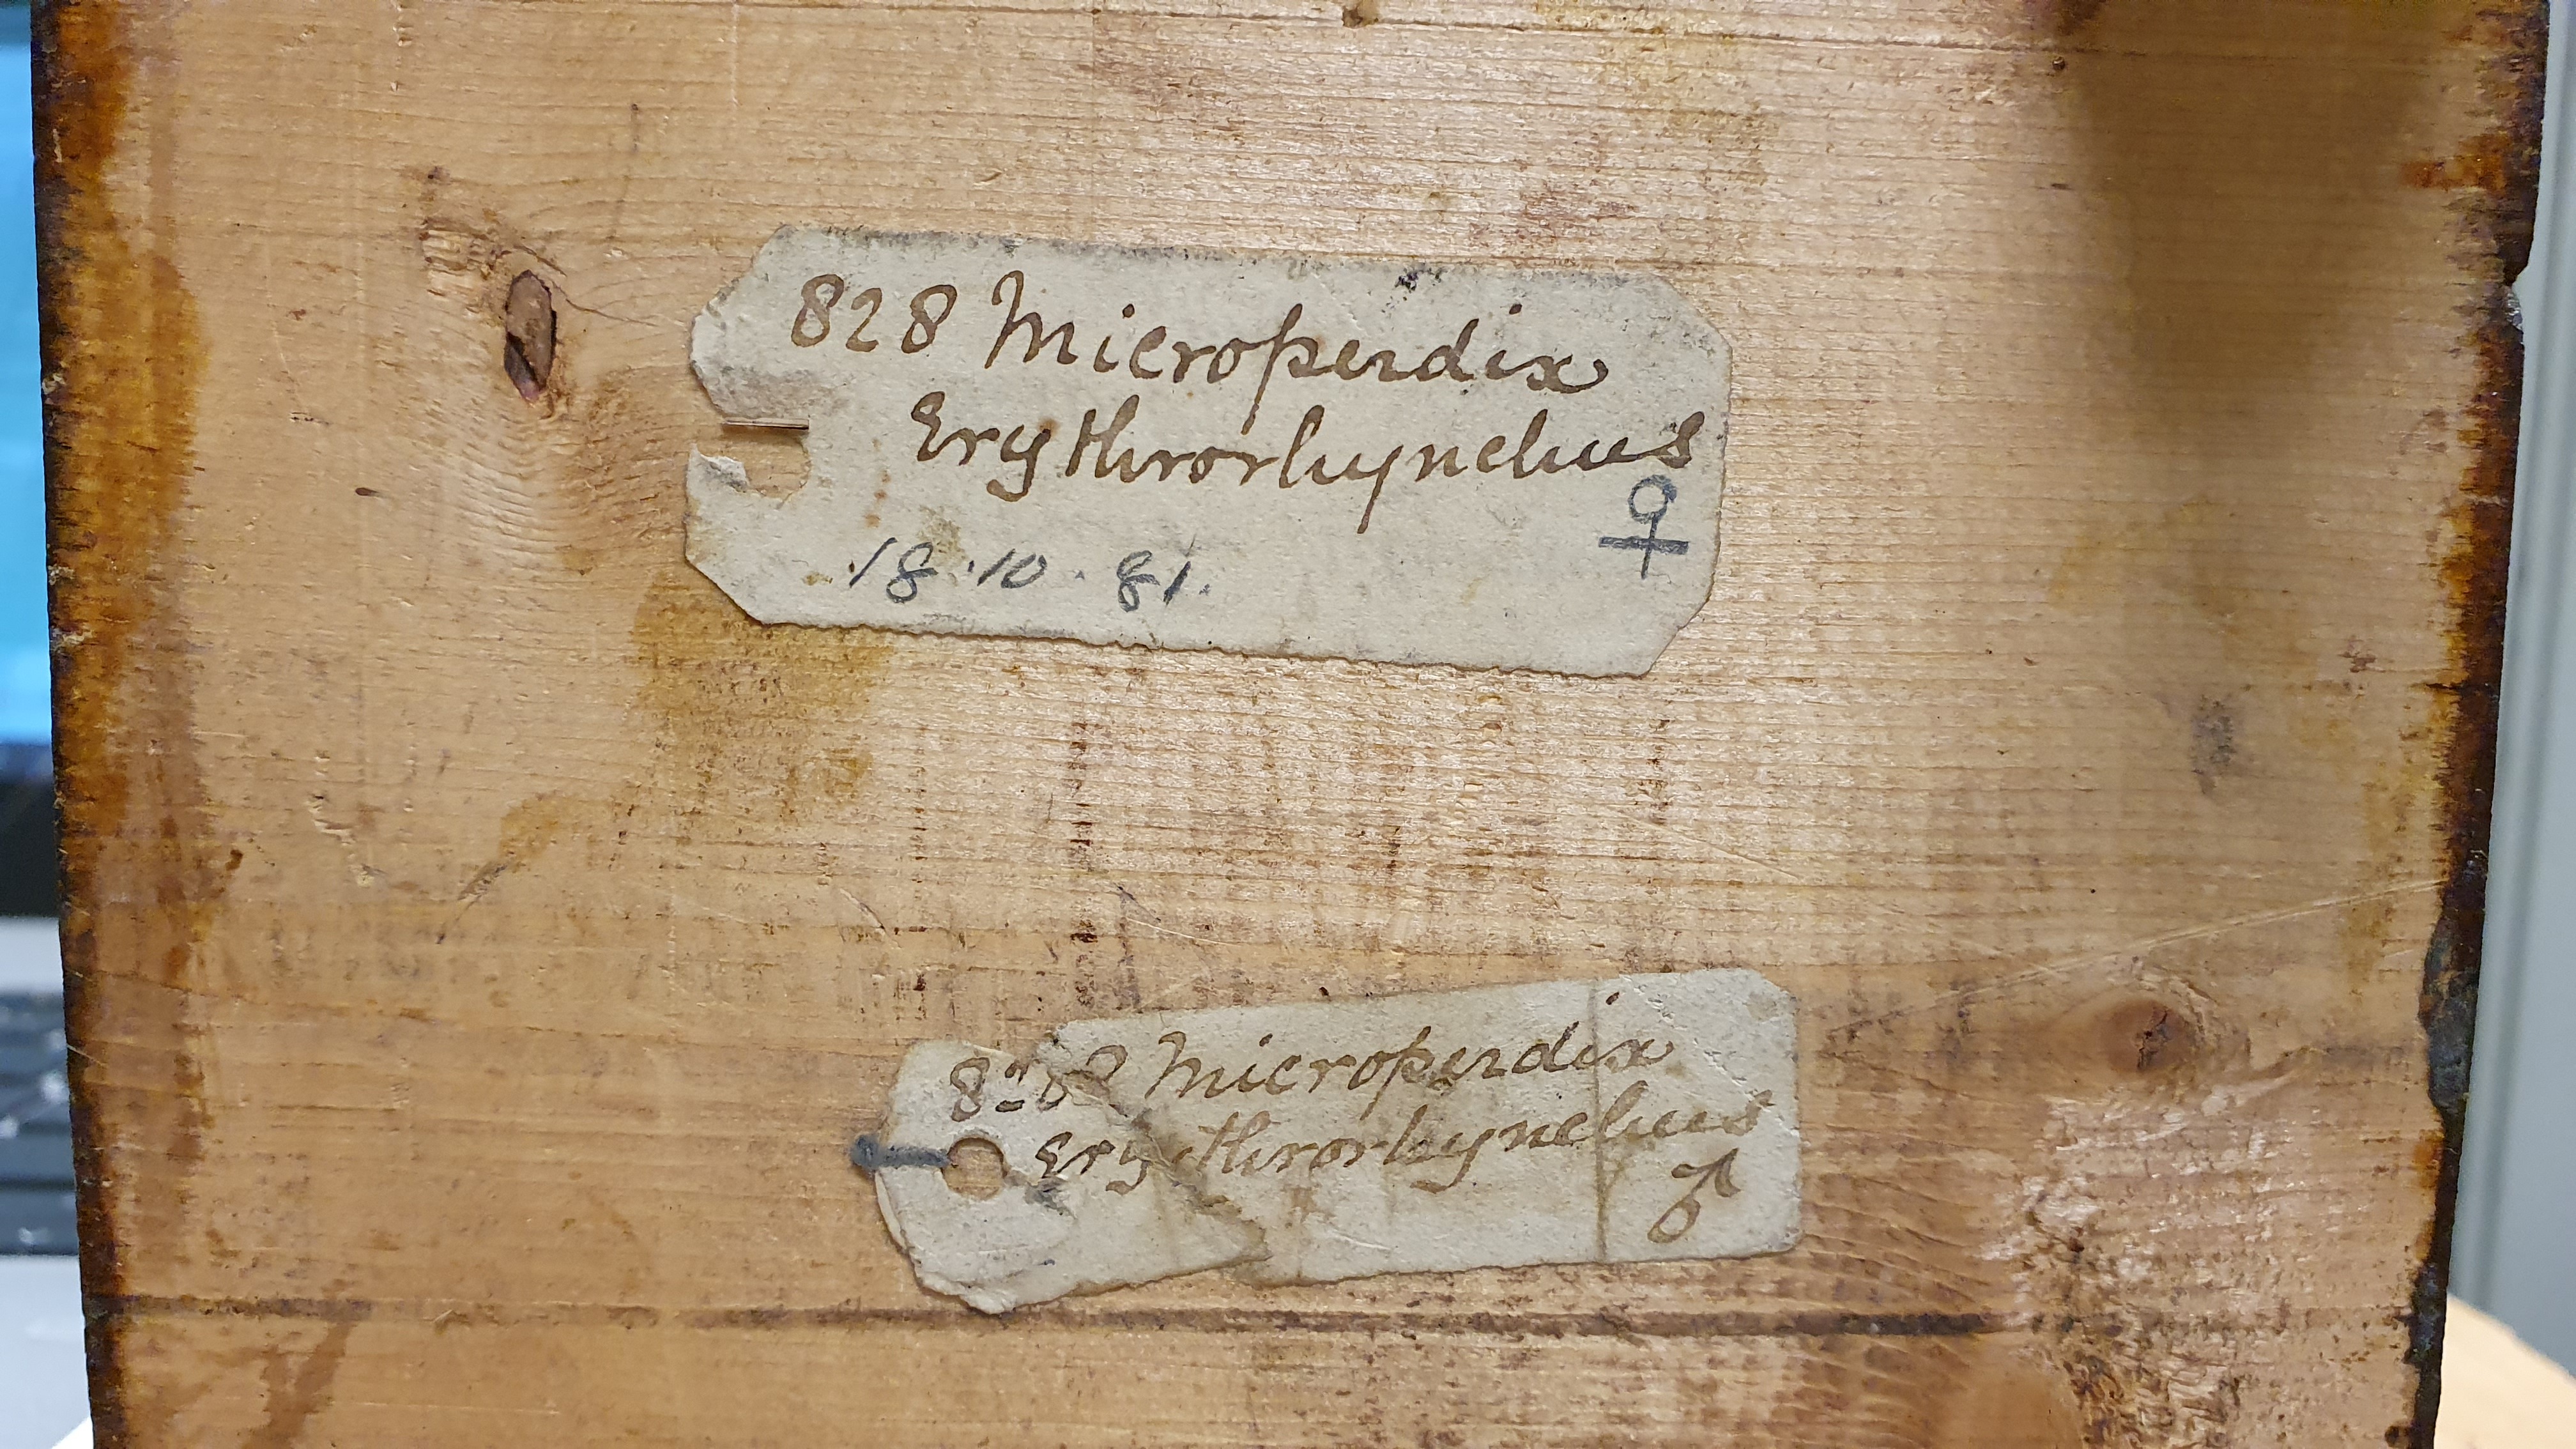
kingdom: Animalia
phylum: Chordata
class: Aves
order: Galliformes
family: Phasianidae
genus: Perdicula
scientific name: Perdicula erythrorhyncha
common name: Painted bush-quail
